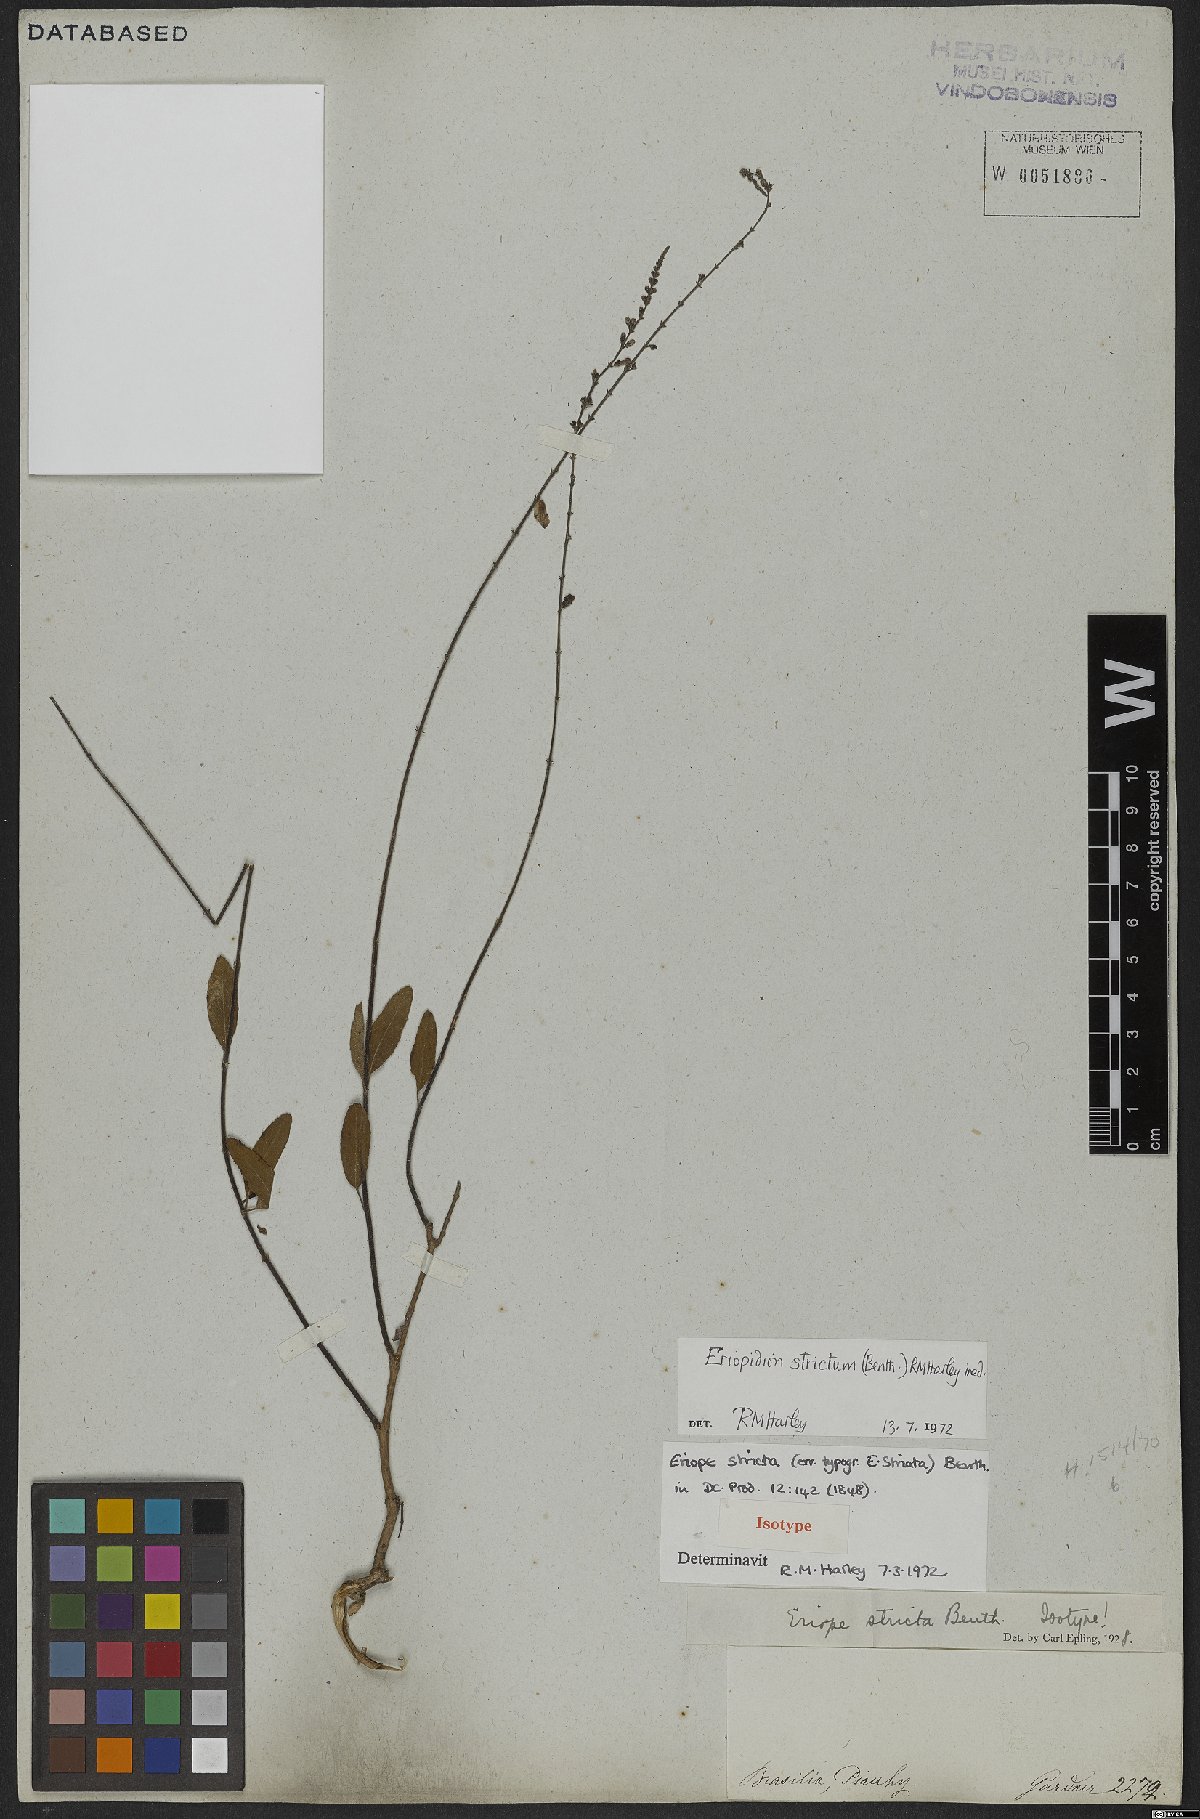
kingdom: Plantae
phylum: Tracheophyta
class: Magnoliopsida
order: Lamiales
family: Lamiaceae
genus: Eriopidion
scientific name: Eriopidion strictum
